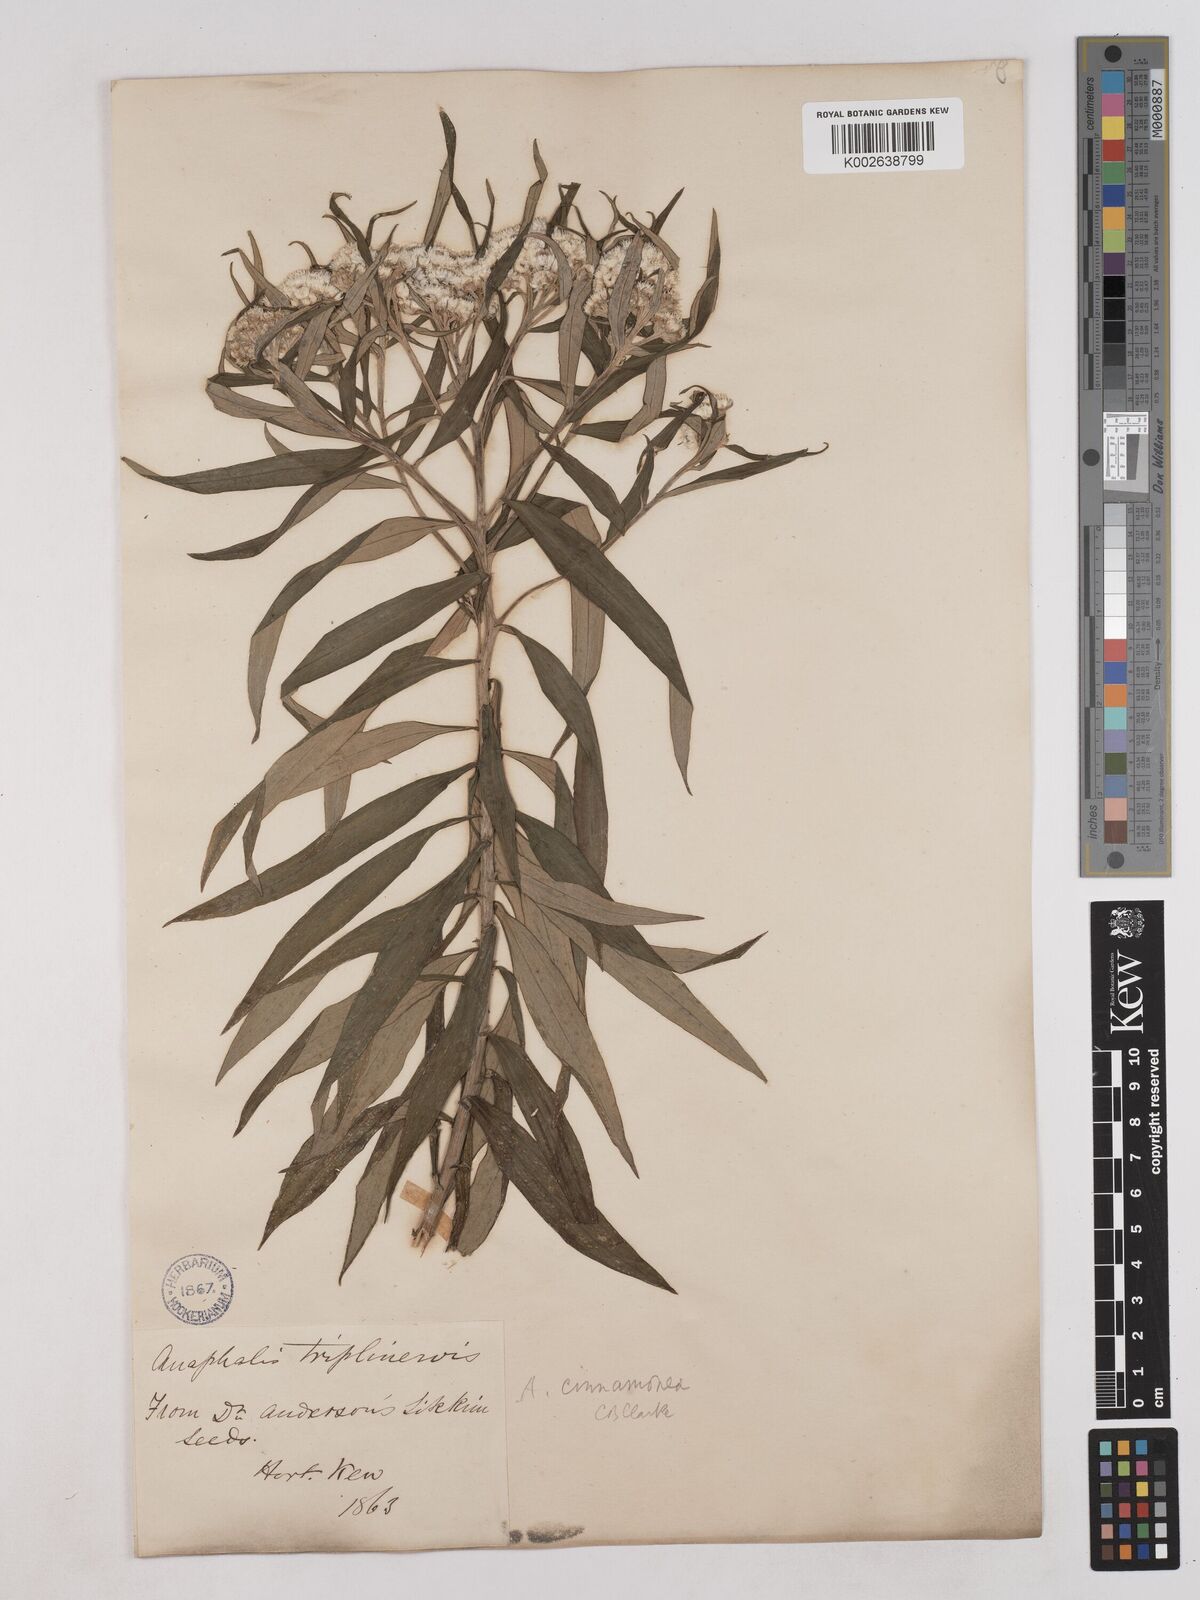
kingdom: Plantae
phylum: Tracheophyta
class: Magnoliopsida
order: Asterales
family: Asteraceae
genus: Anaphalis
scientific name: Anaphalis marcescens
